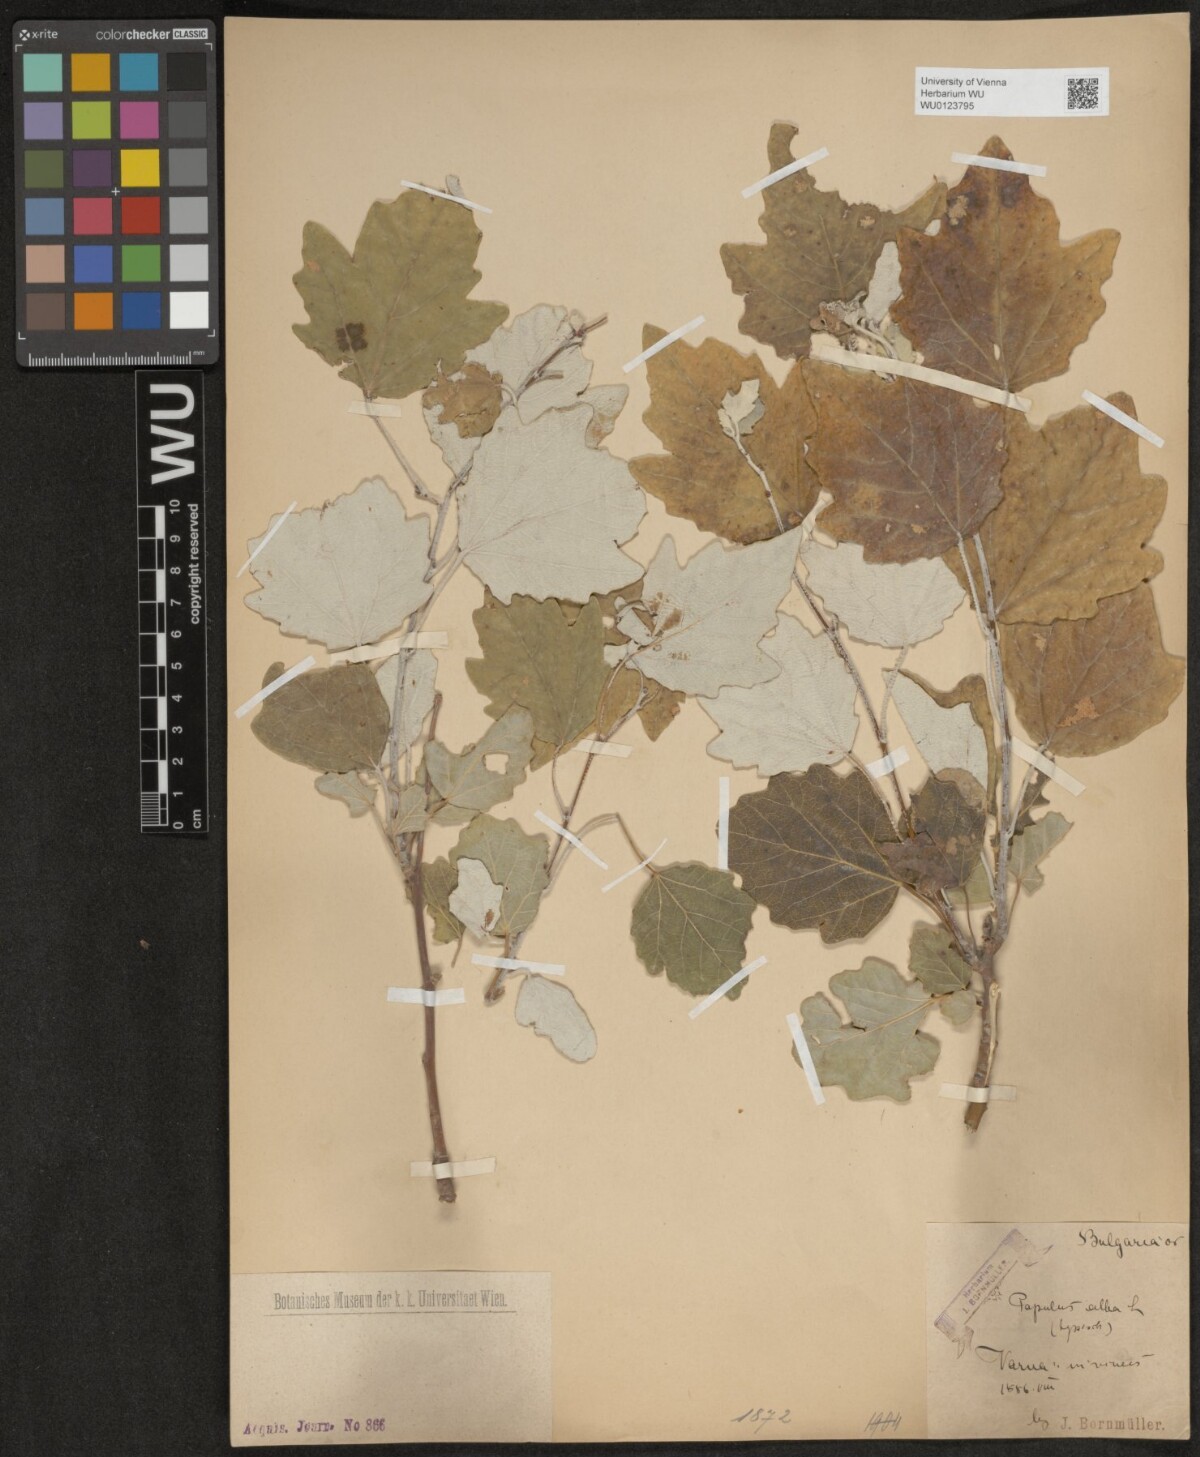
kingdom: Plantae
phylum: Tracheophyta
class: Magnoliopsida
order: Malpighiales
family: Salicaceae
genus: Populus
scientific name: Populus alba
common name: White poplar
